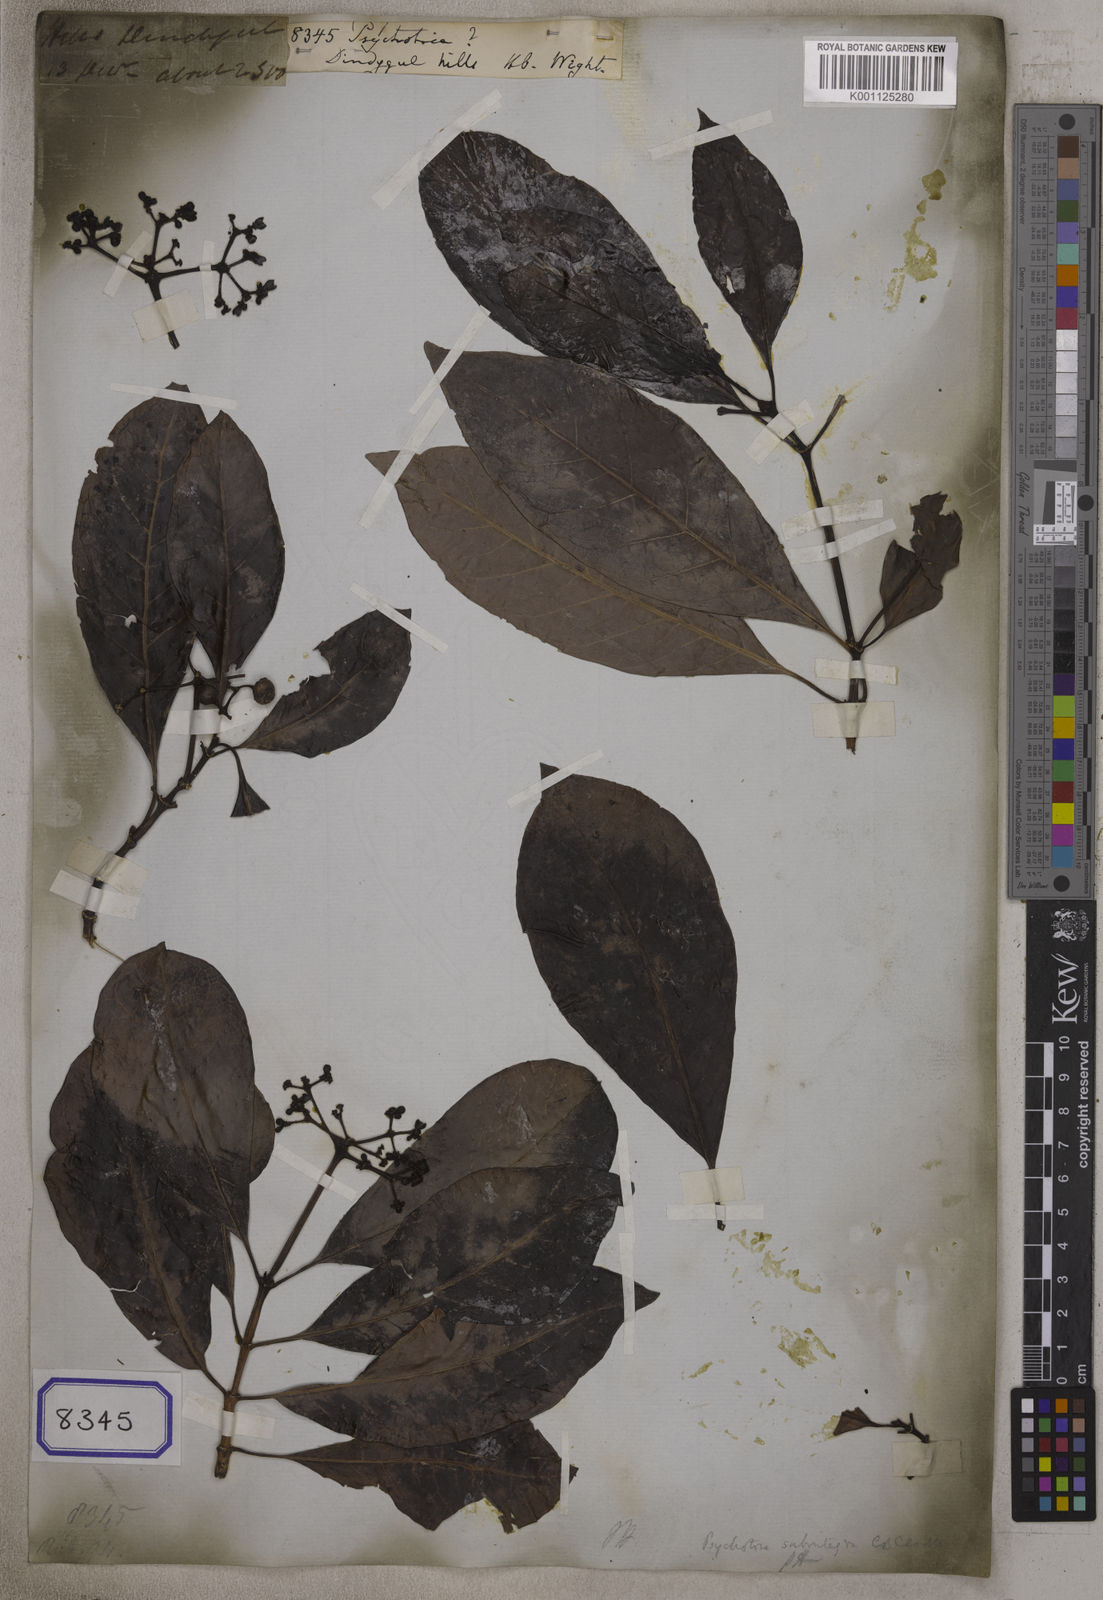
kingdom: Plantae
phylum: Tracheophyta
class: Magnoliopsida
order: Gentianales
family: Rubiaceae
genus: Psychotria
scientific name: Psychotria
